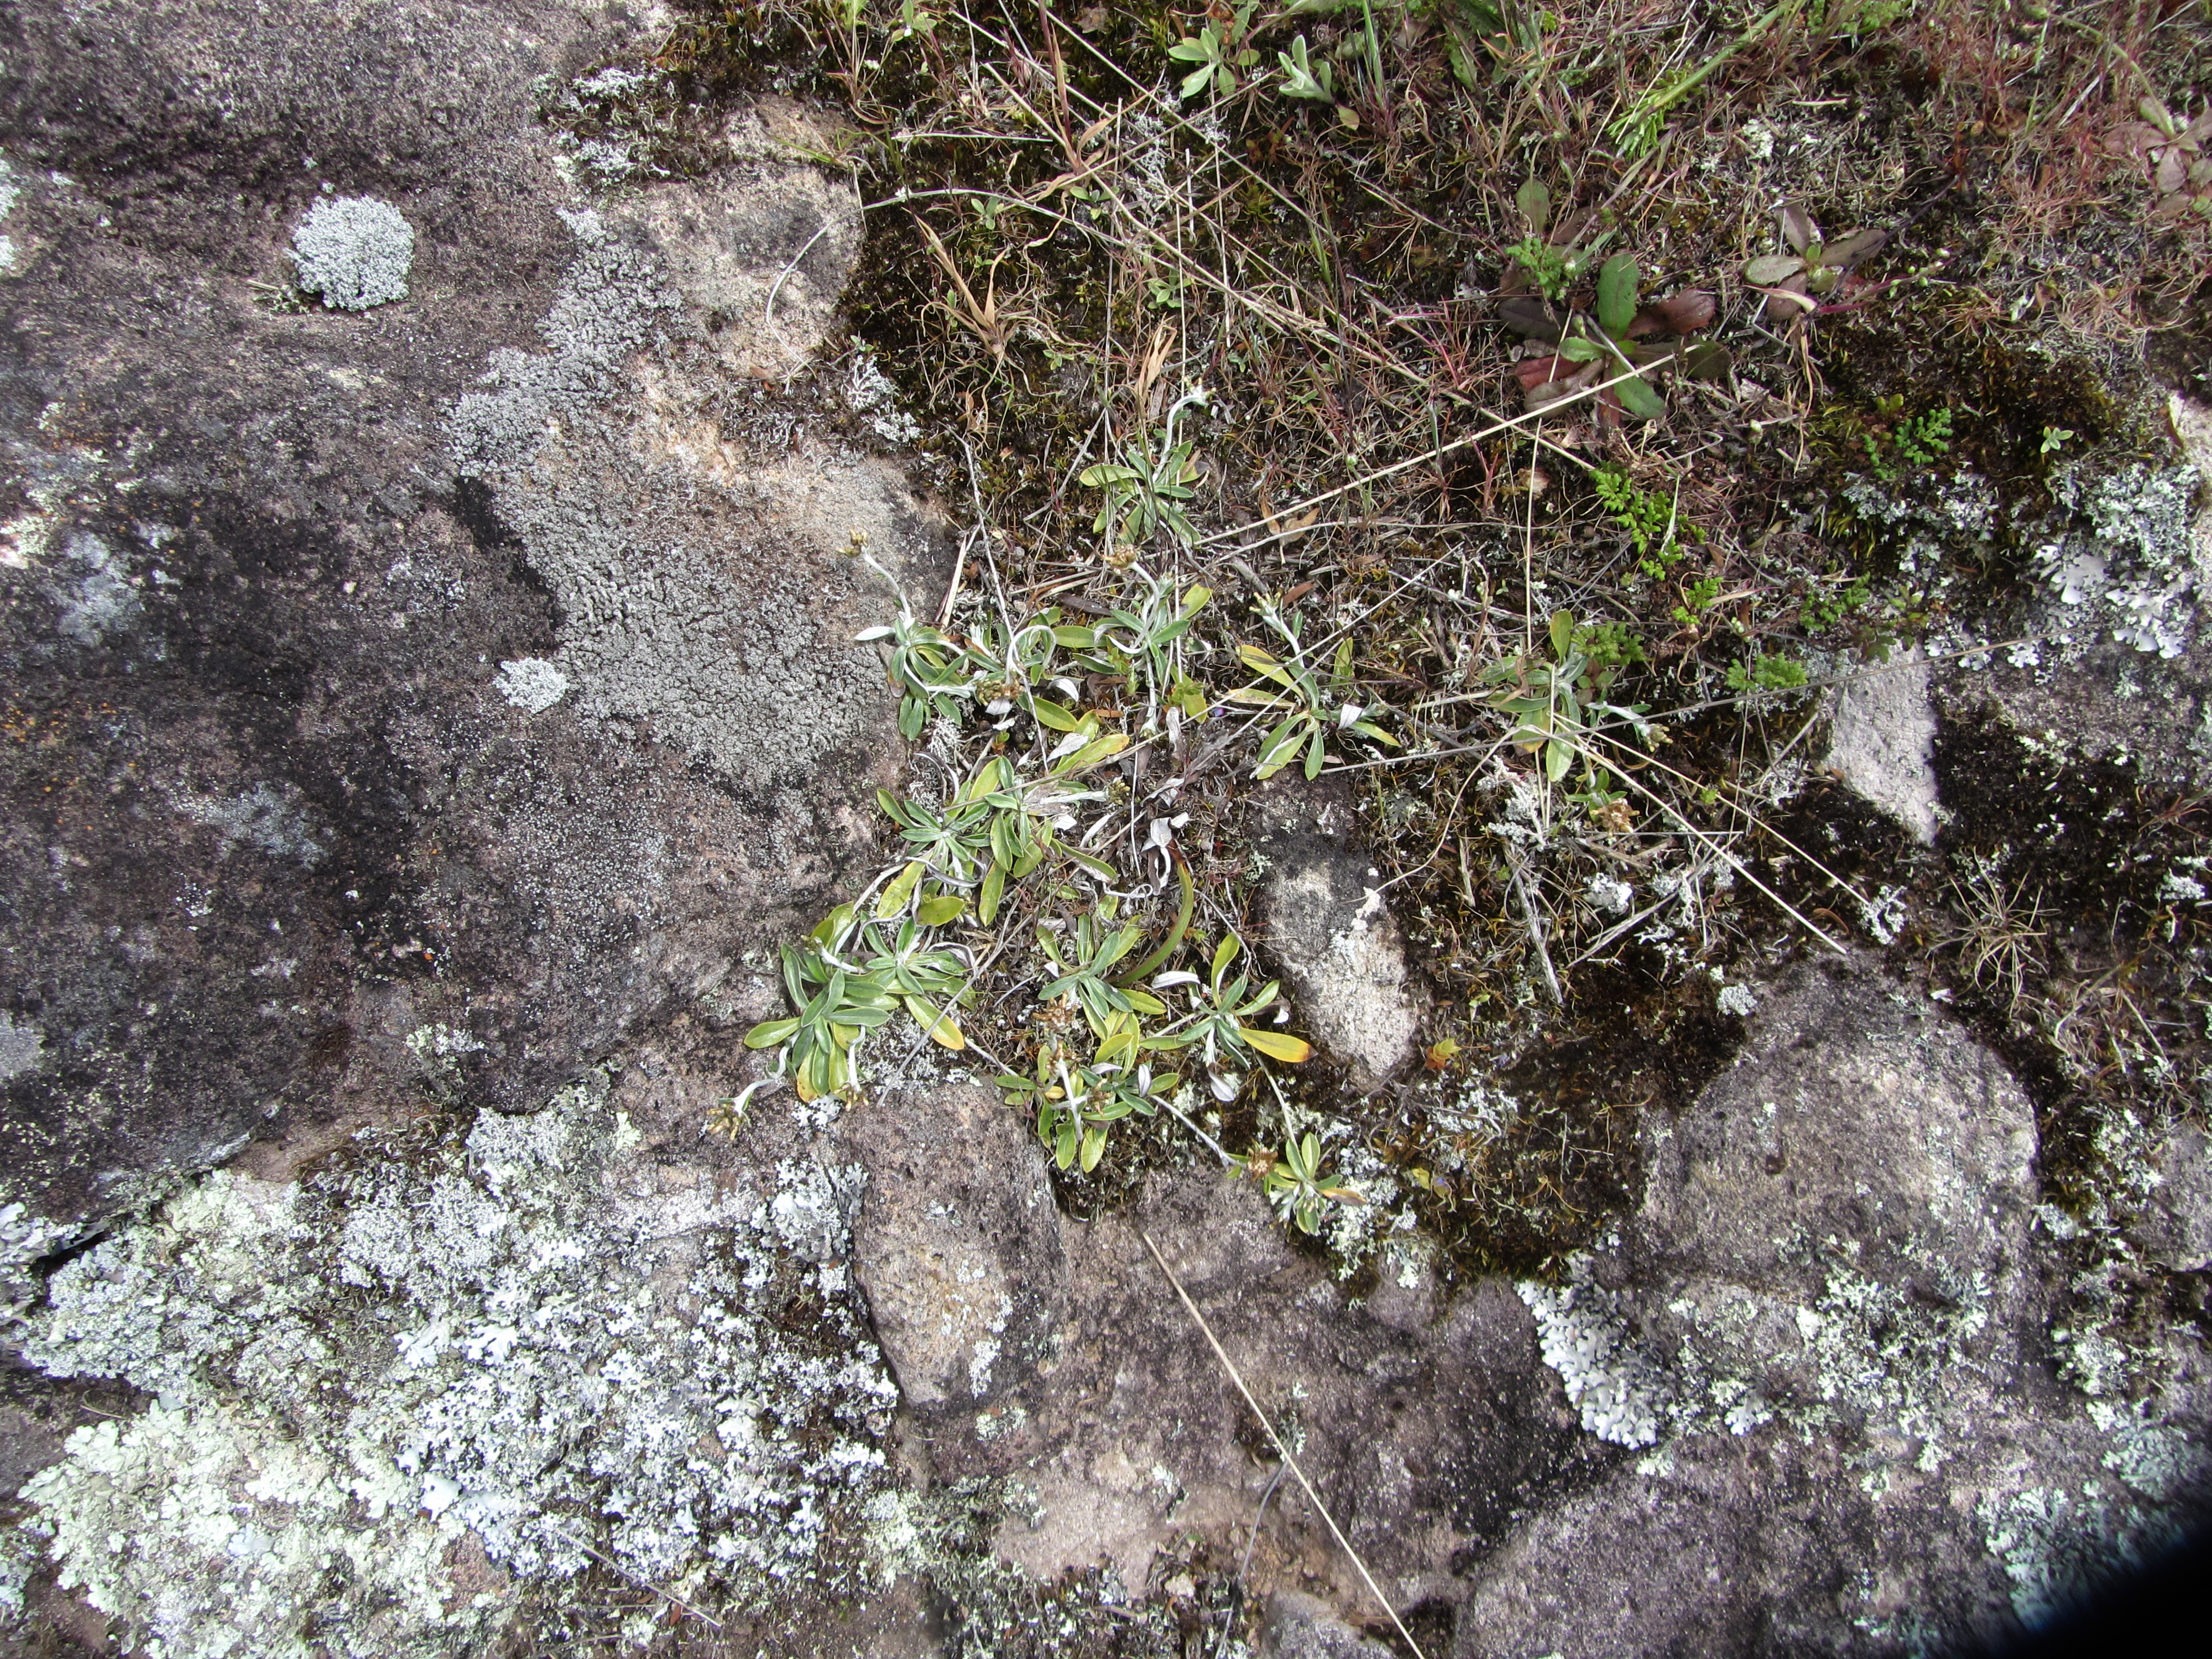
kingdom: Plantae
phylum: Tracheophyta
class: Magnoliopsida
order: Asterales
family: Asteraceae
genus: Euchiton
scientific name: Euchiton audax
